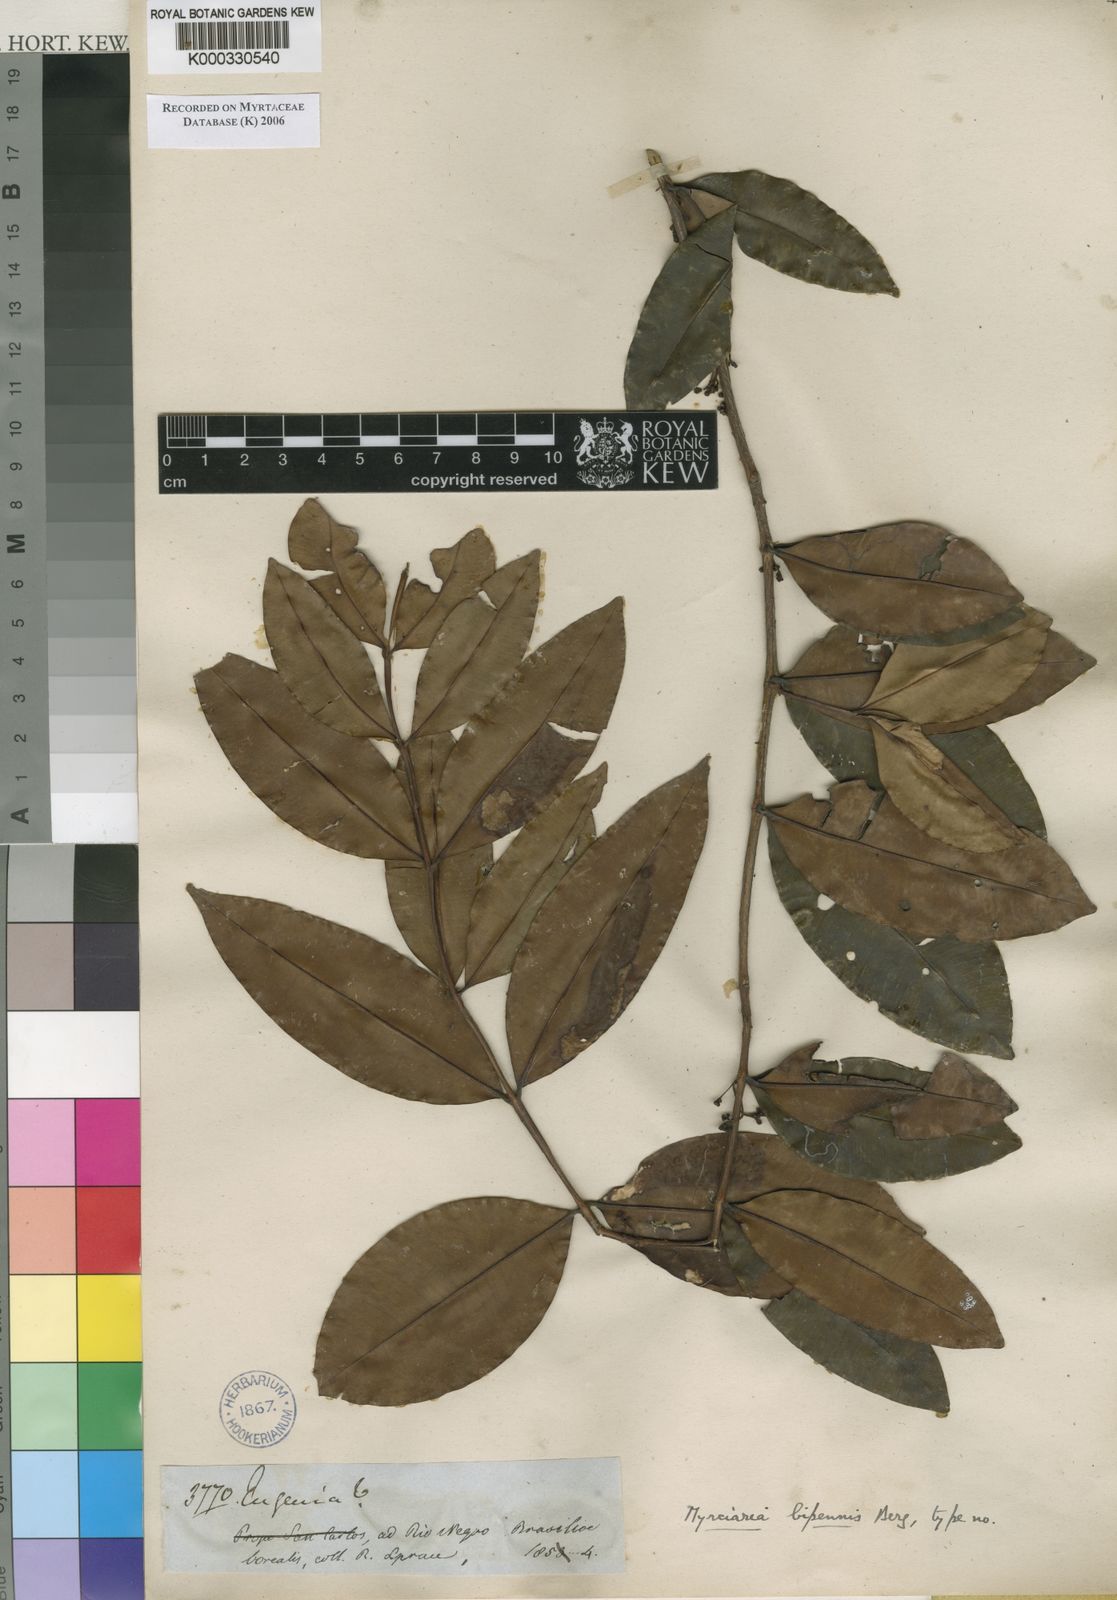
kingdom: Plantae
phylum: Tracheophyta
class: Magnoliopsida
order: Myrtales
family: Myrtaceae
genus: Myrcia
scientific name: Myrcia bipennis
